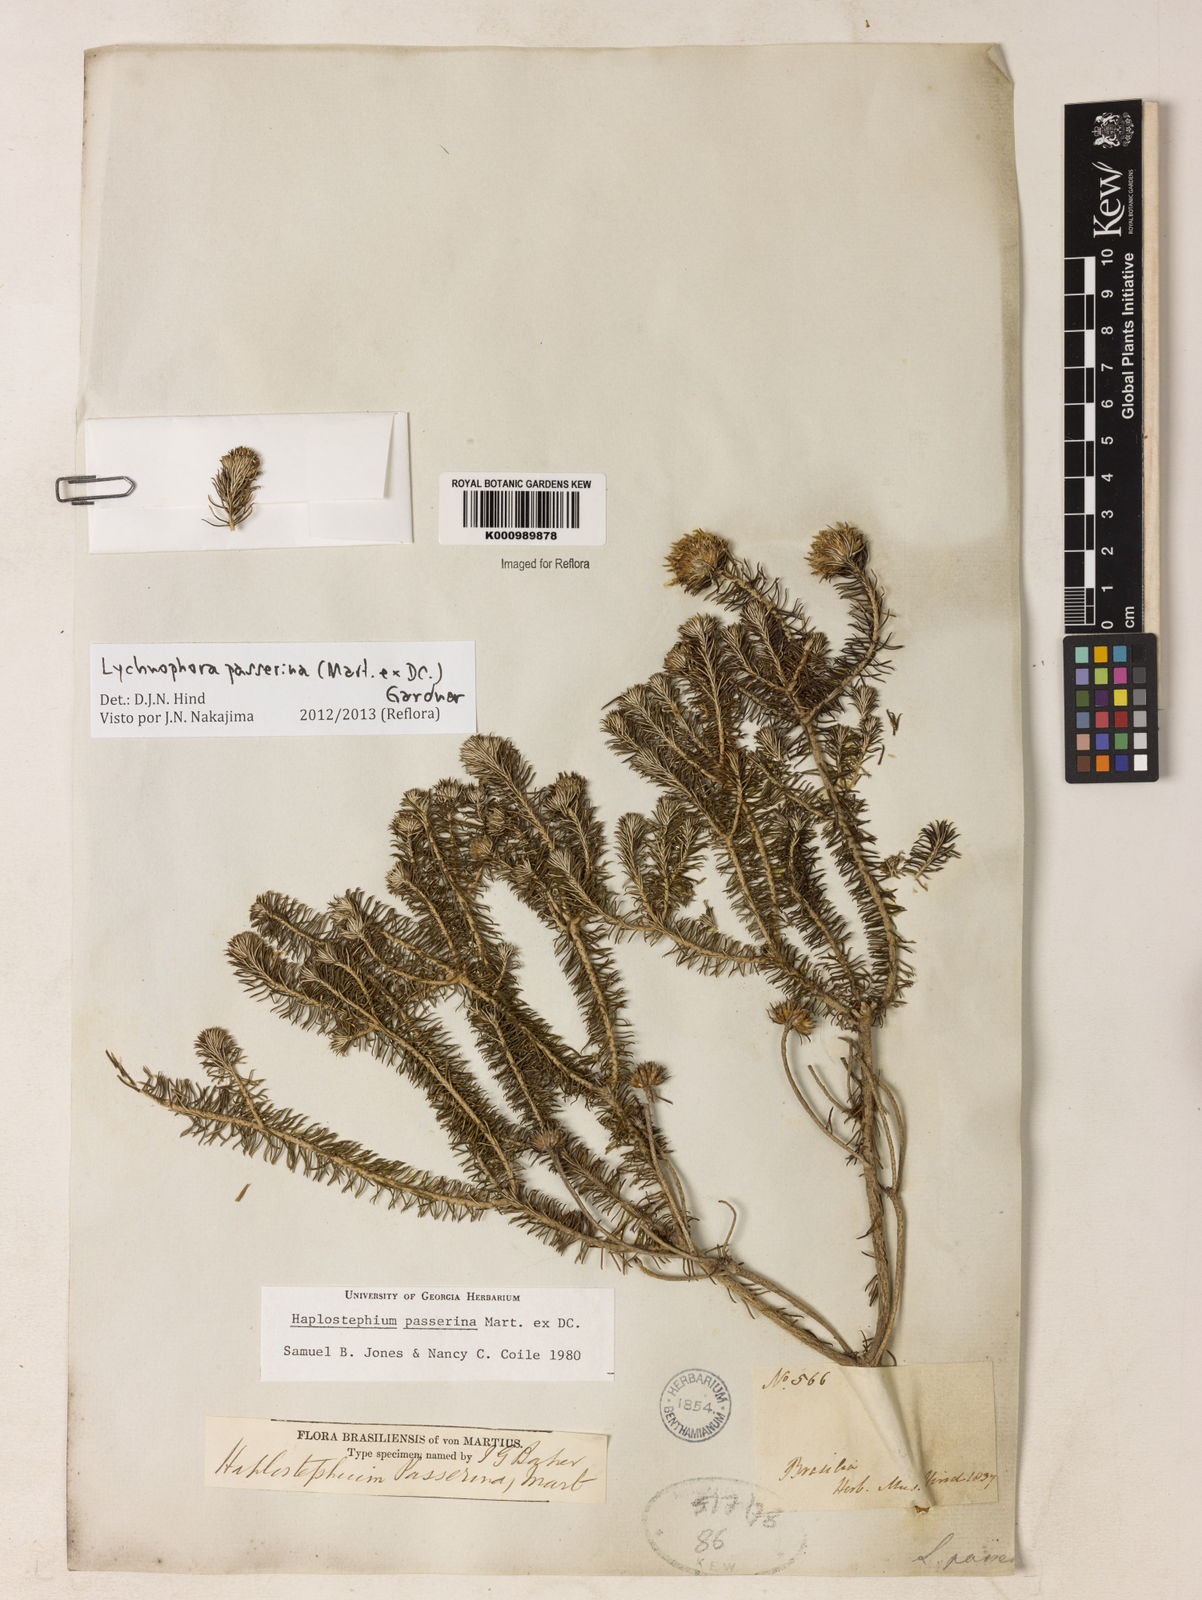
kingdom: Plantae
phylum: Tracheophyta
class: Magnoliopsida
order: Asterales
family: Asteraceae
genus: Lychnophora
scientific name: Lychnophora passerina
